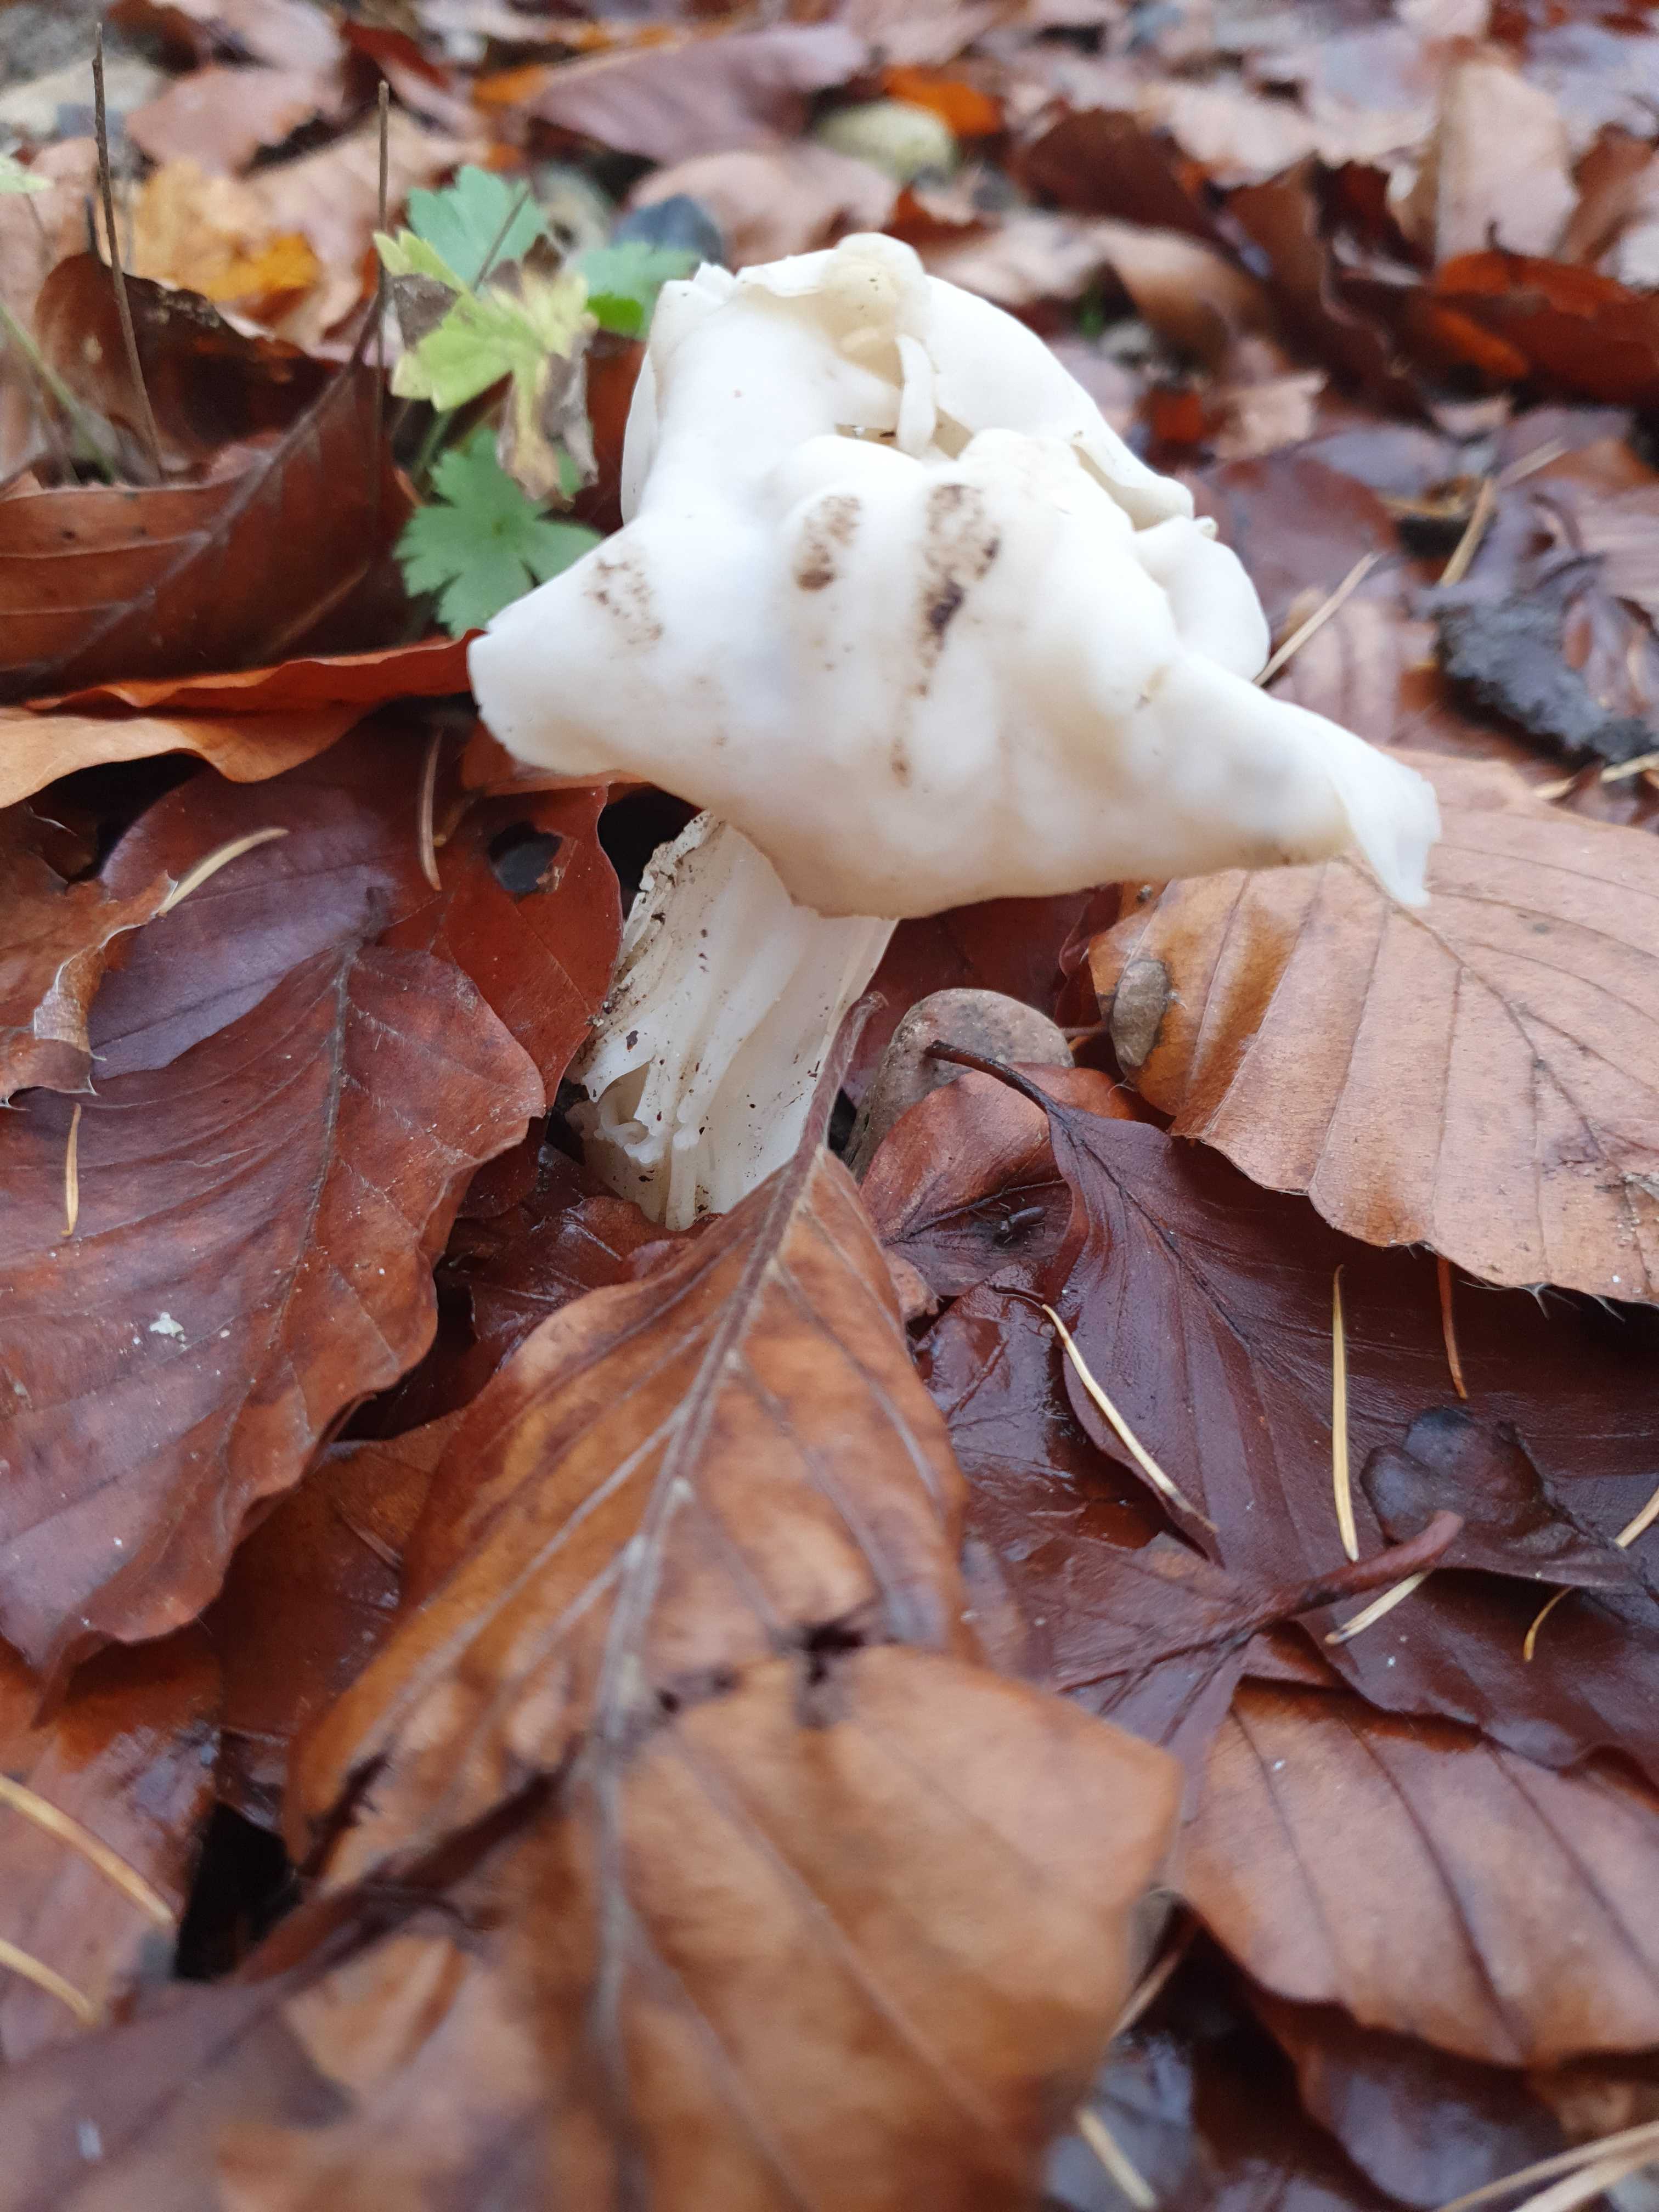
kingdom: Fungi
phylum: Ascomycota
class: Pezizomycetes
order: Pezizales
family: Helvellaceae
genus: Helvella
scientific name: Helvella crispa
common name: kruset foldhat
